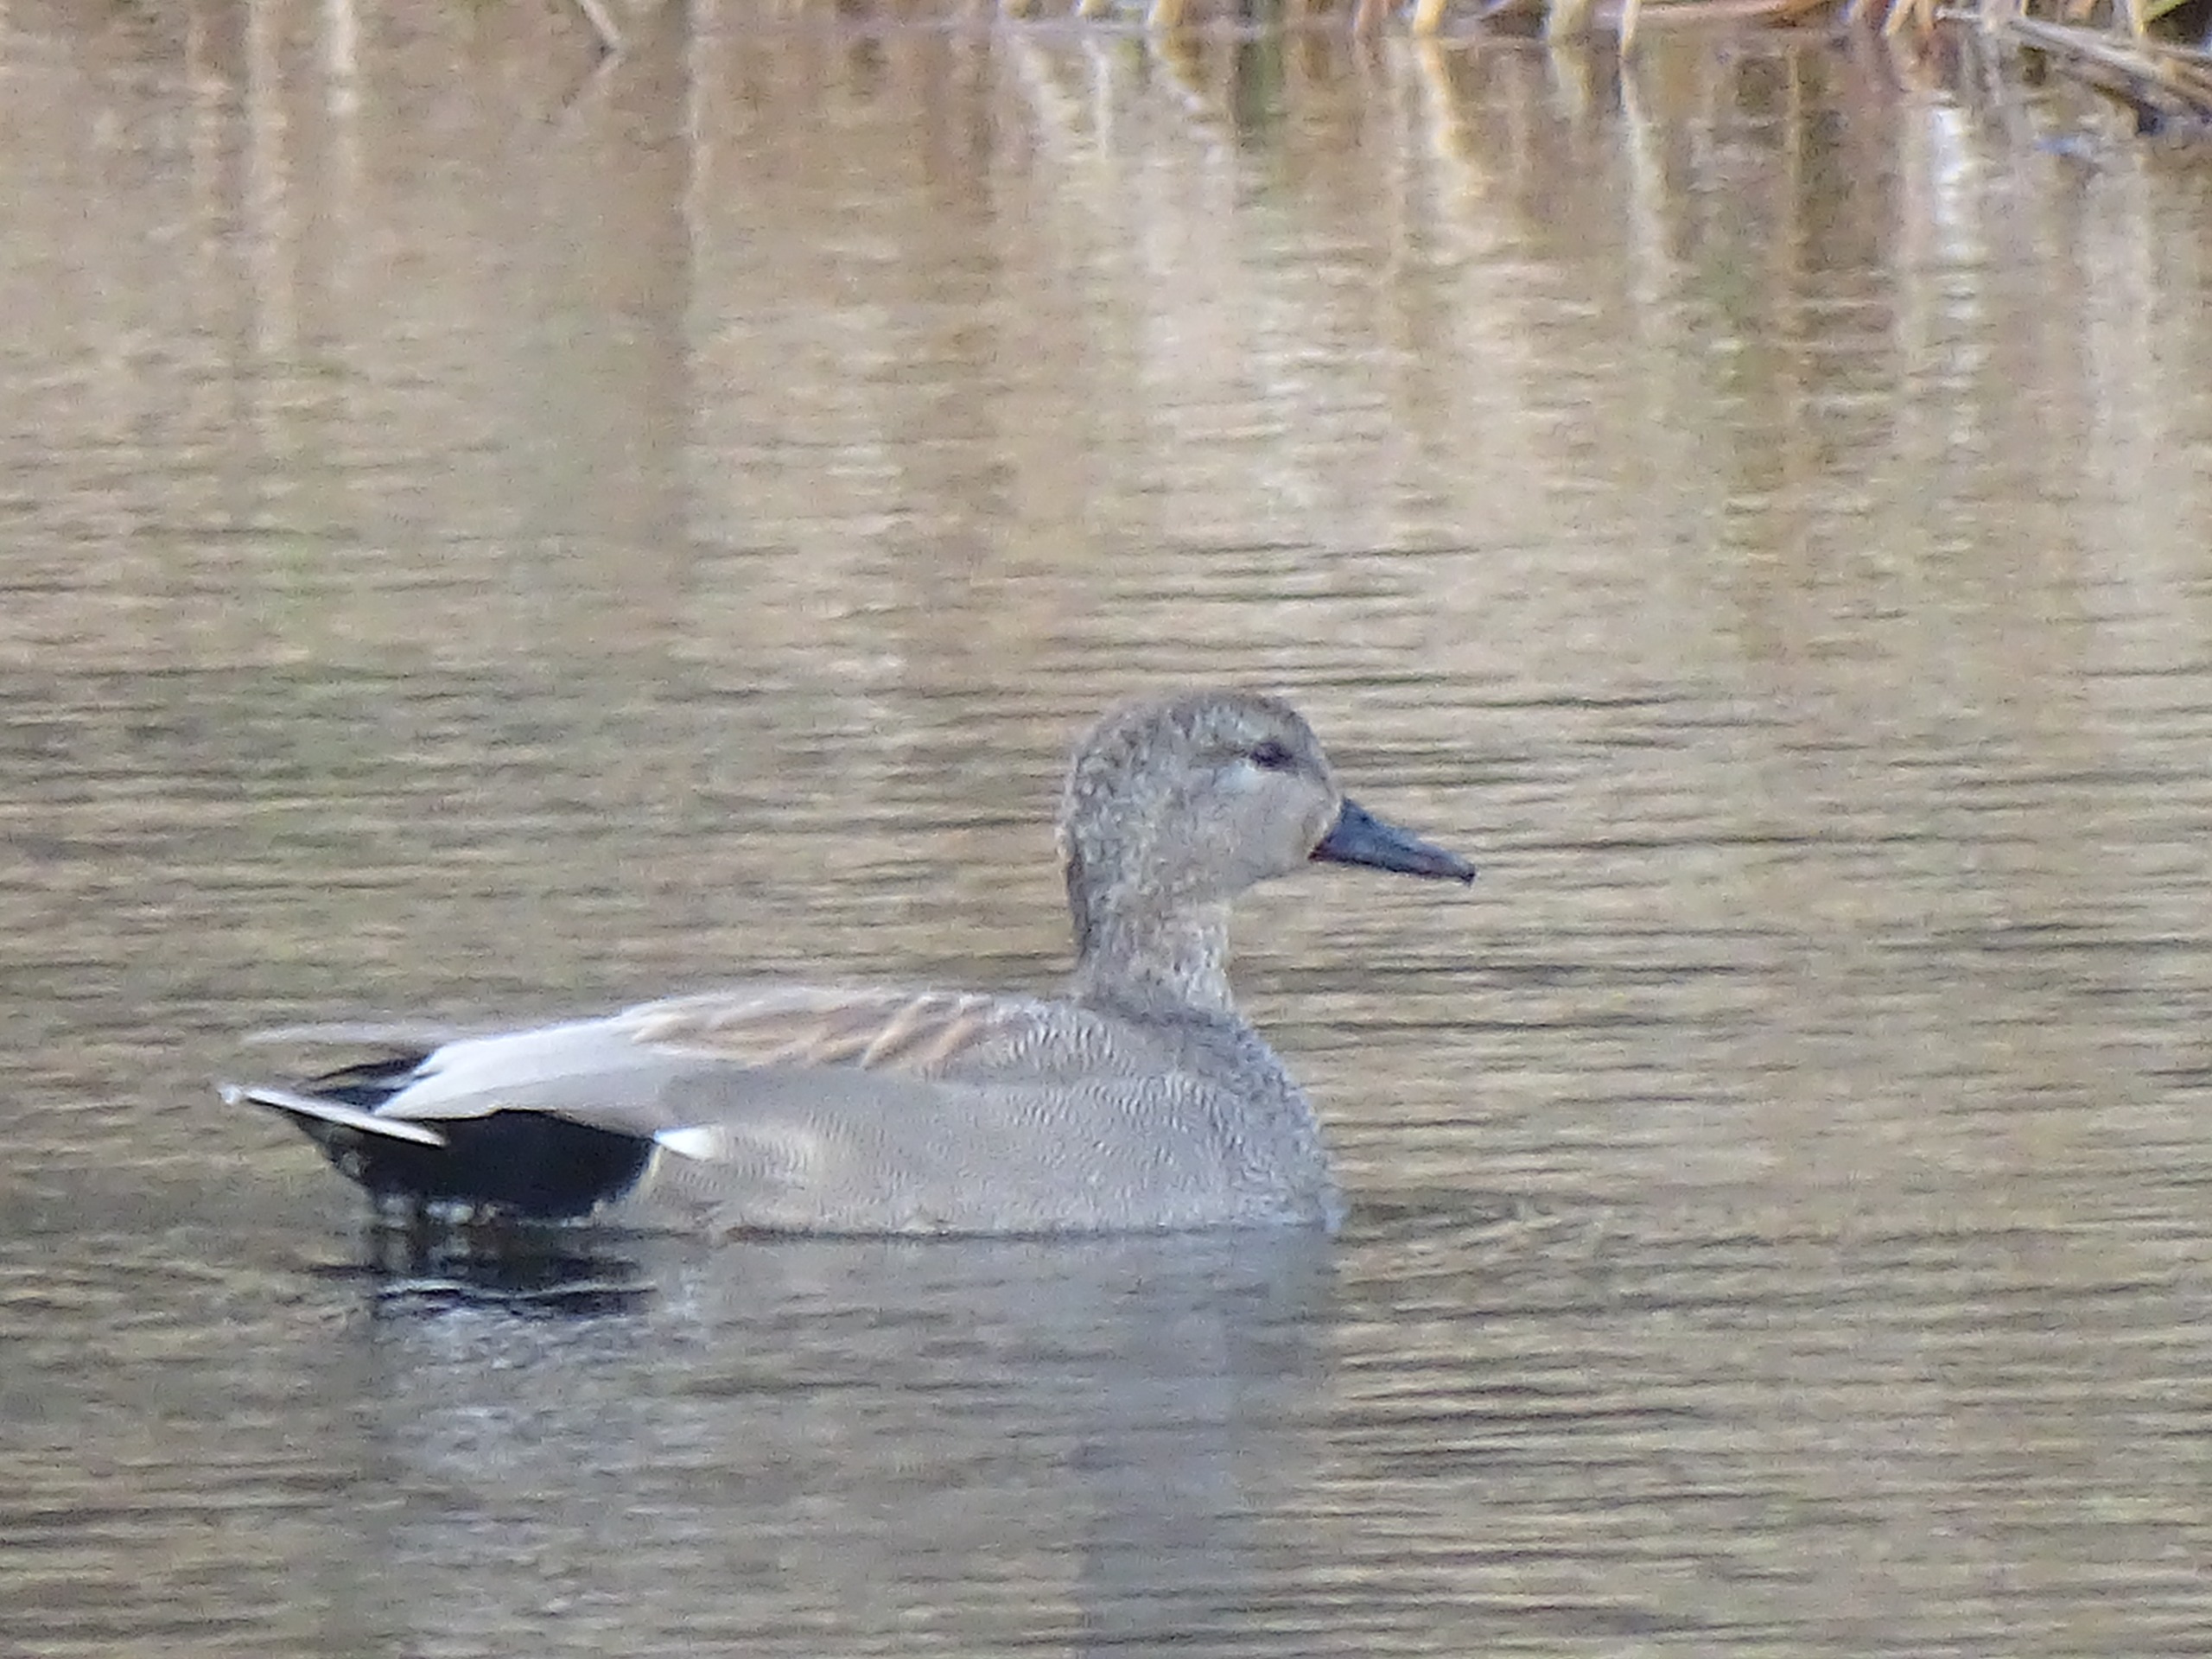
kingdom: Animalia
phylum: Chordata
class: Aves
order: Anseriformes
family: Anatidae
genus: Mareca
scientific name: Mareca strepera
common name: Knarand
